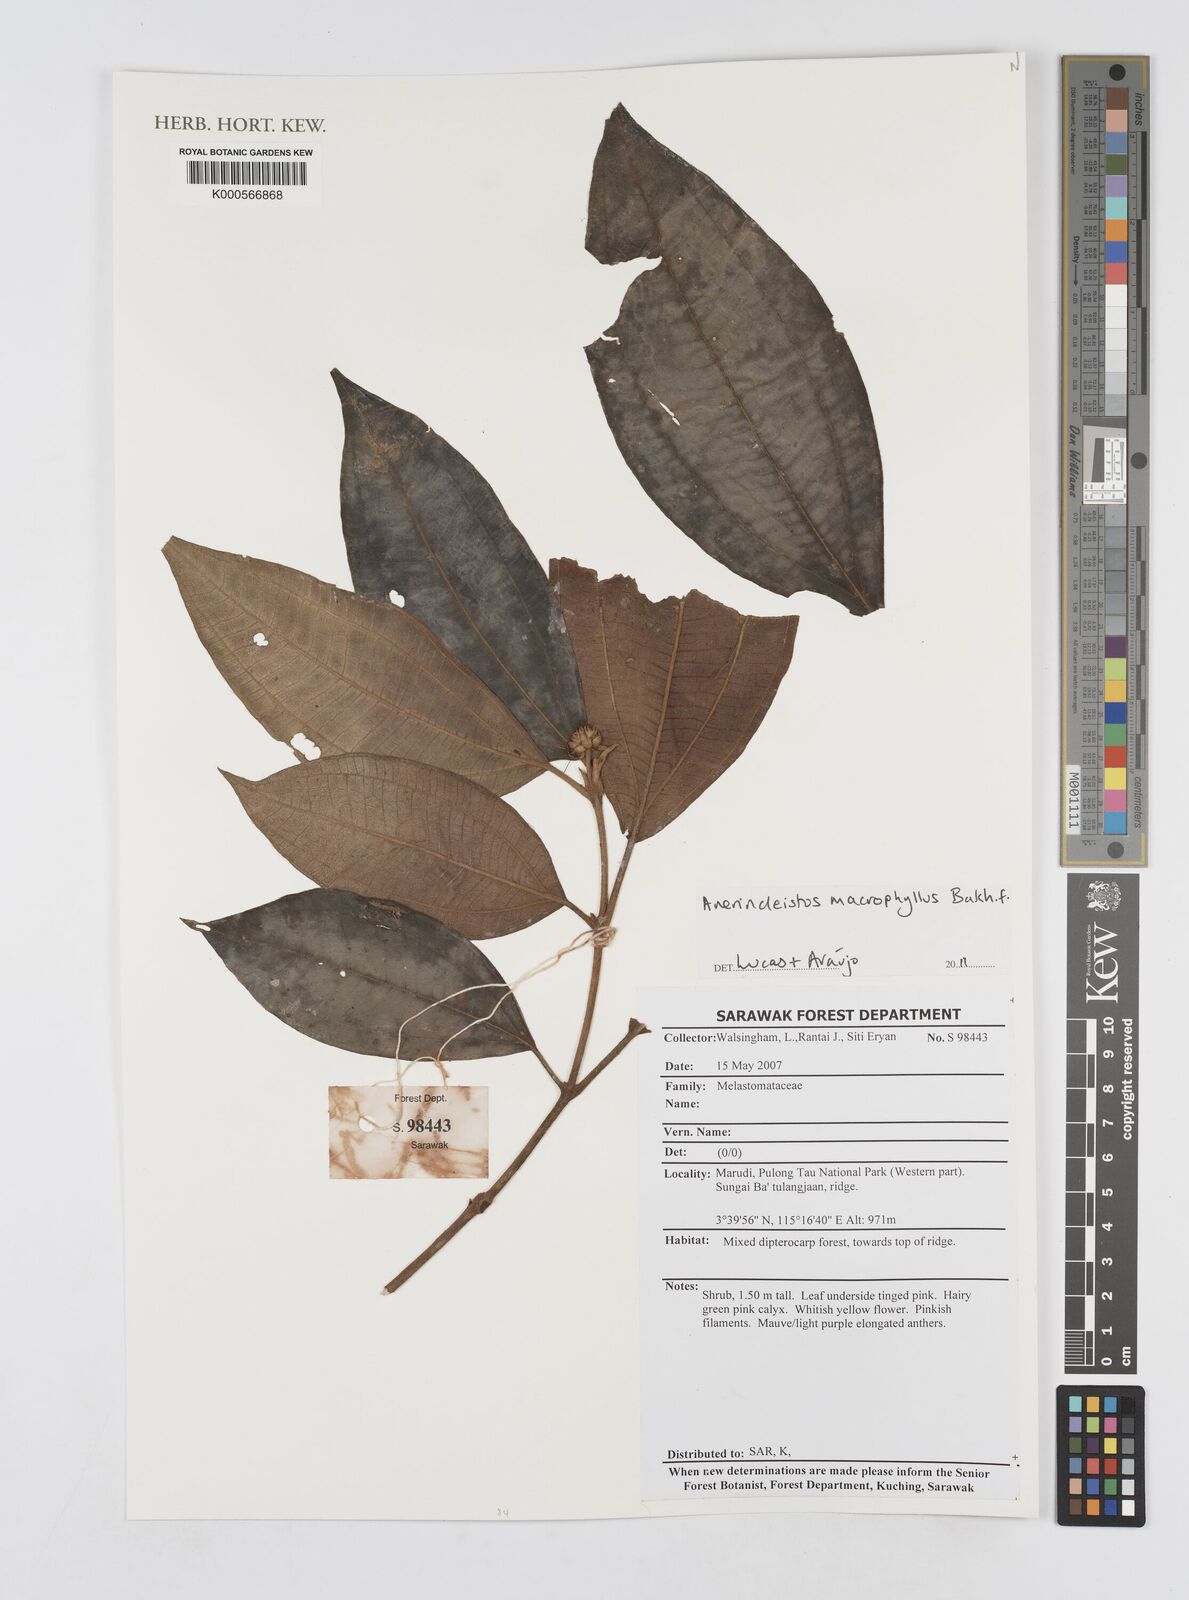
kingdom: Plantae
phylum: Tracheophyta
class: Magnoliopsida
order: Myrtales
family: Melastomataceae
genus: Anerincleistus
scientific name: Anerincleistus macrophyllus
